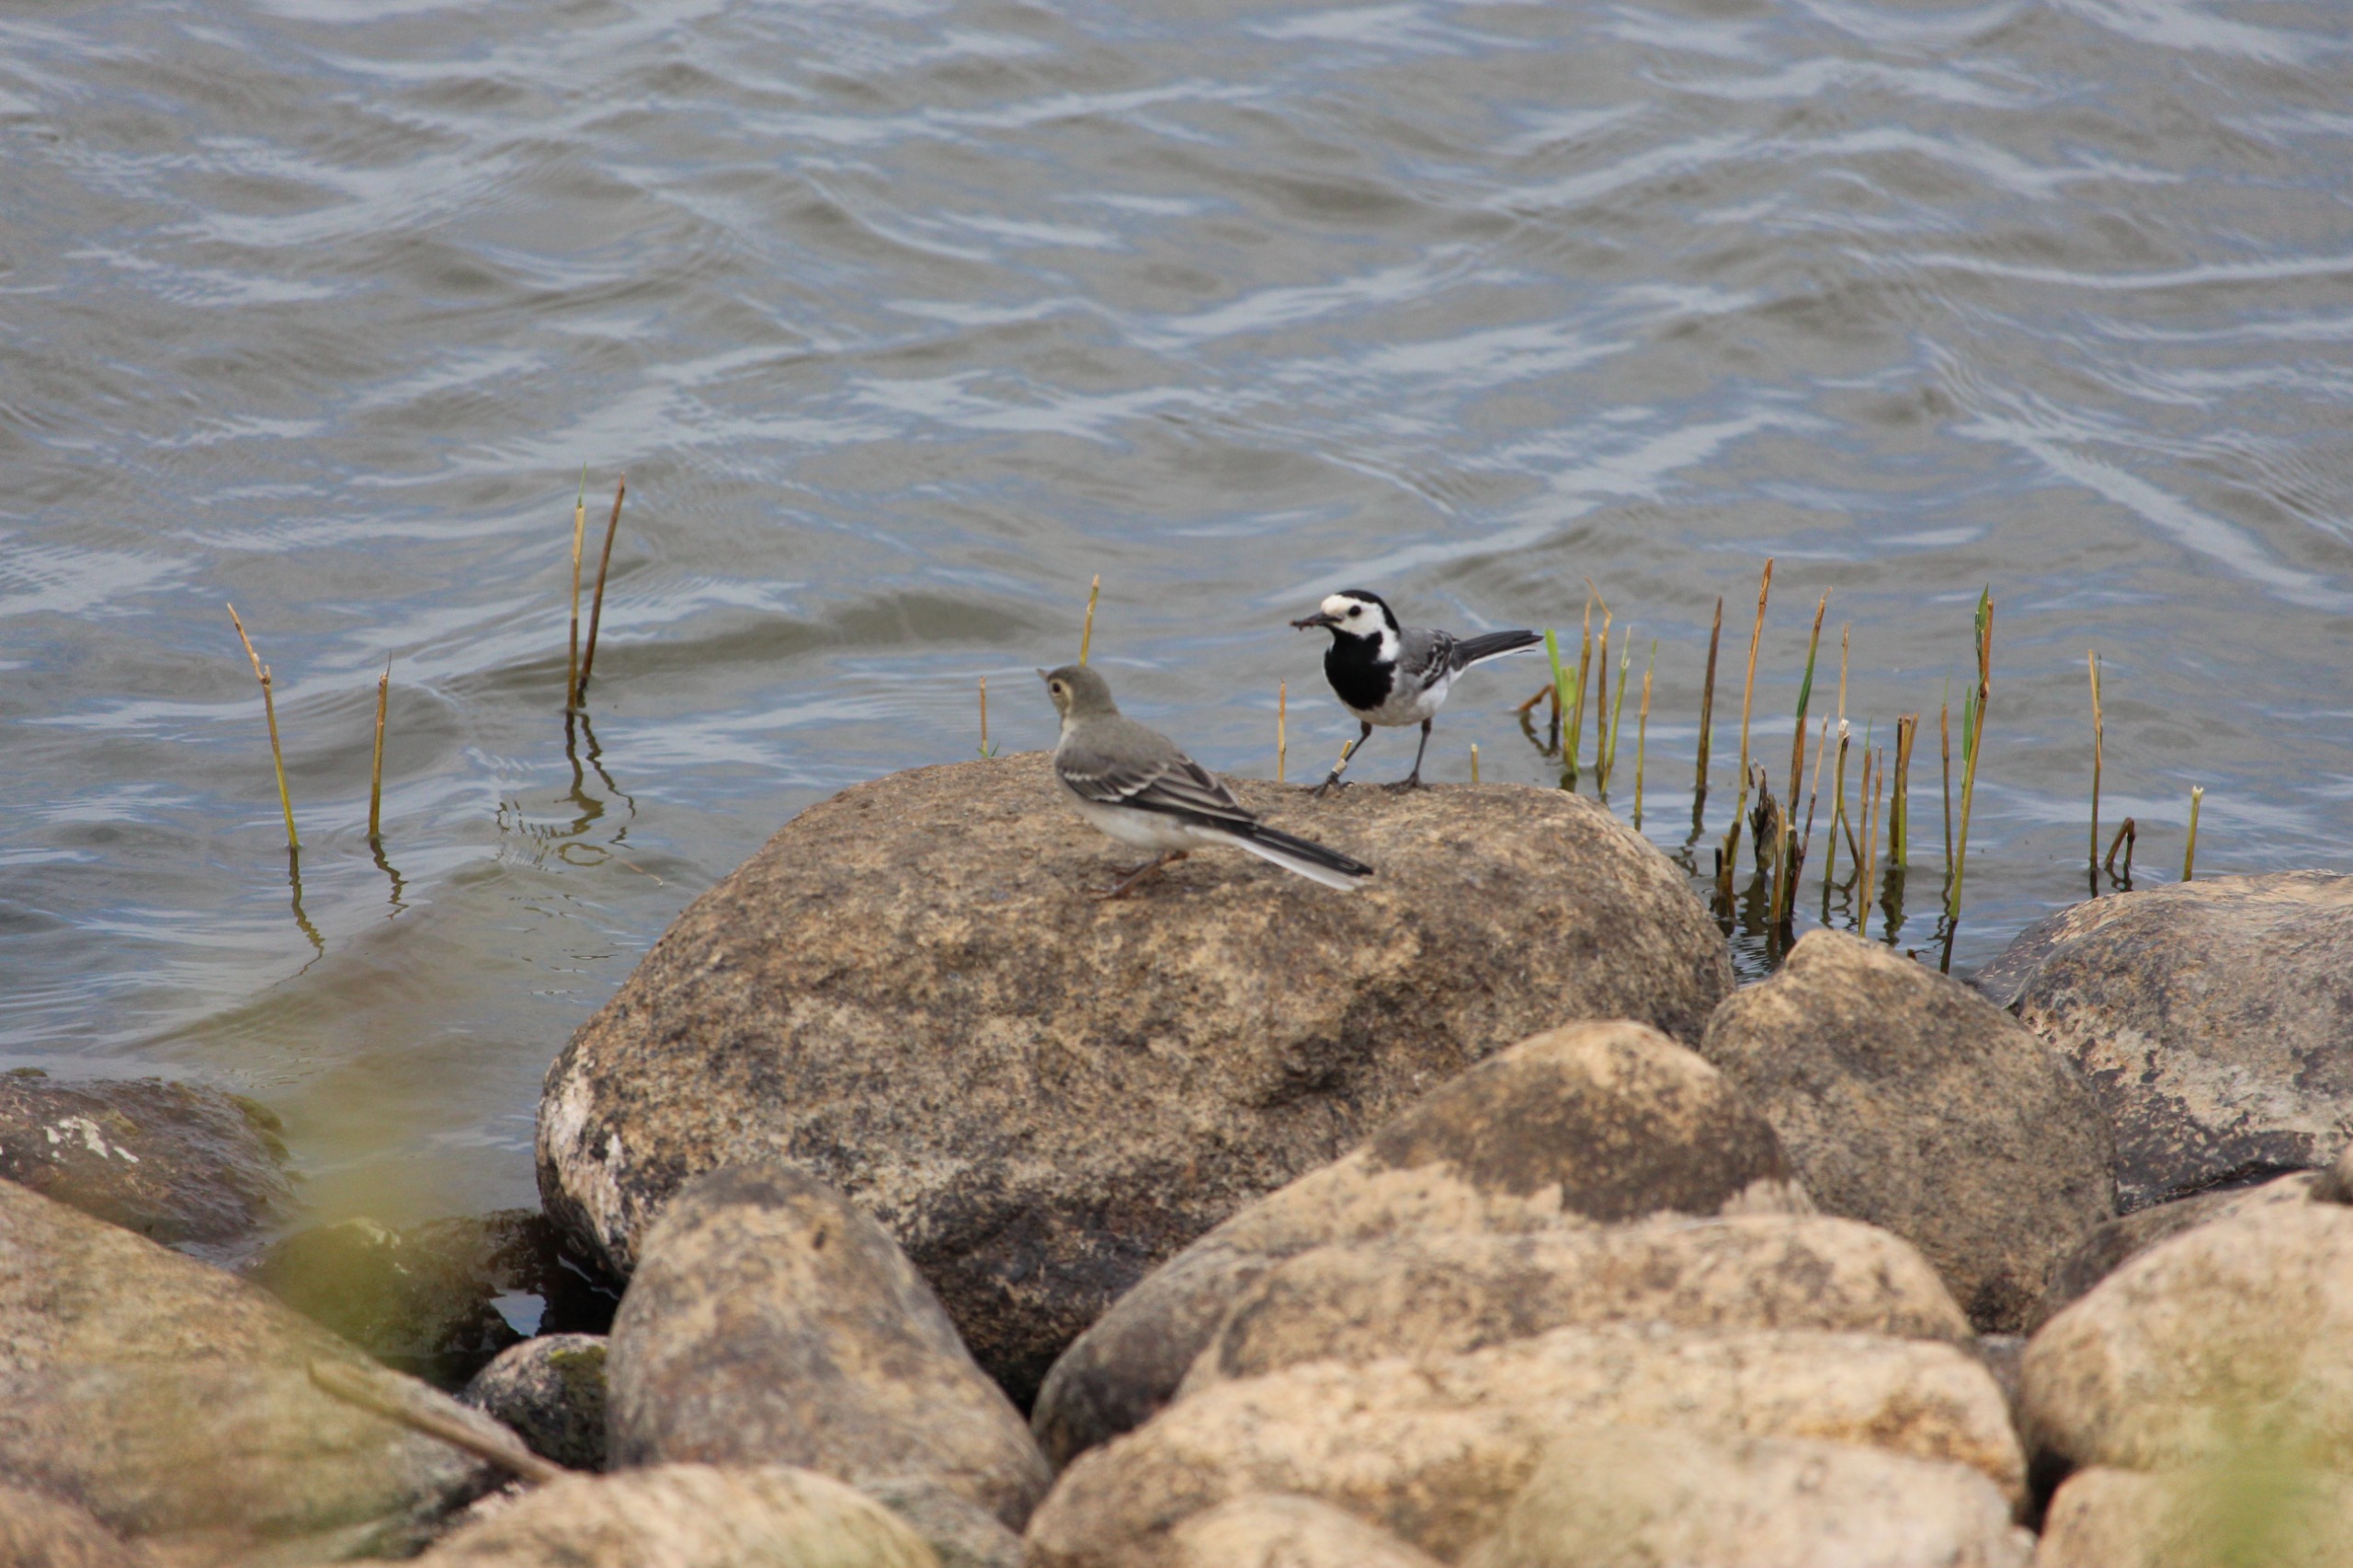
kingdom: Animalia
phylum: Chordata
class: Aves
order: Passeriformes
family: Motacillidae
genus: Motacilla
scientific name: Motacilla alba
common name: Hvid vipstjert
